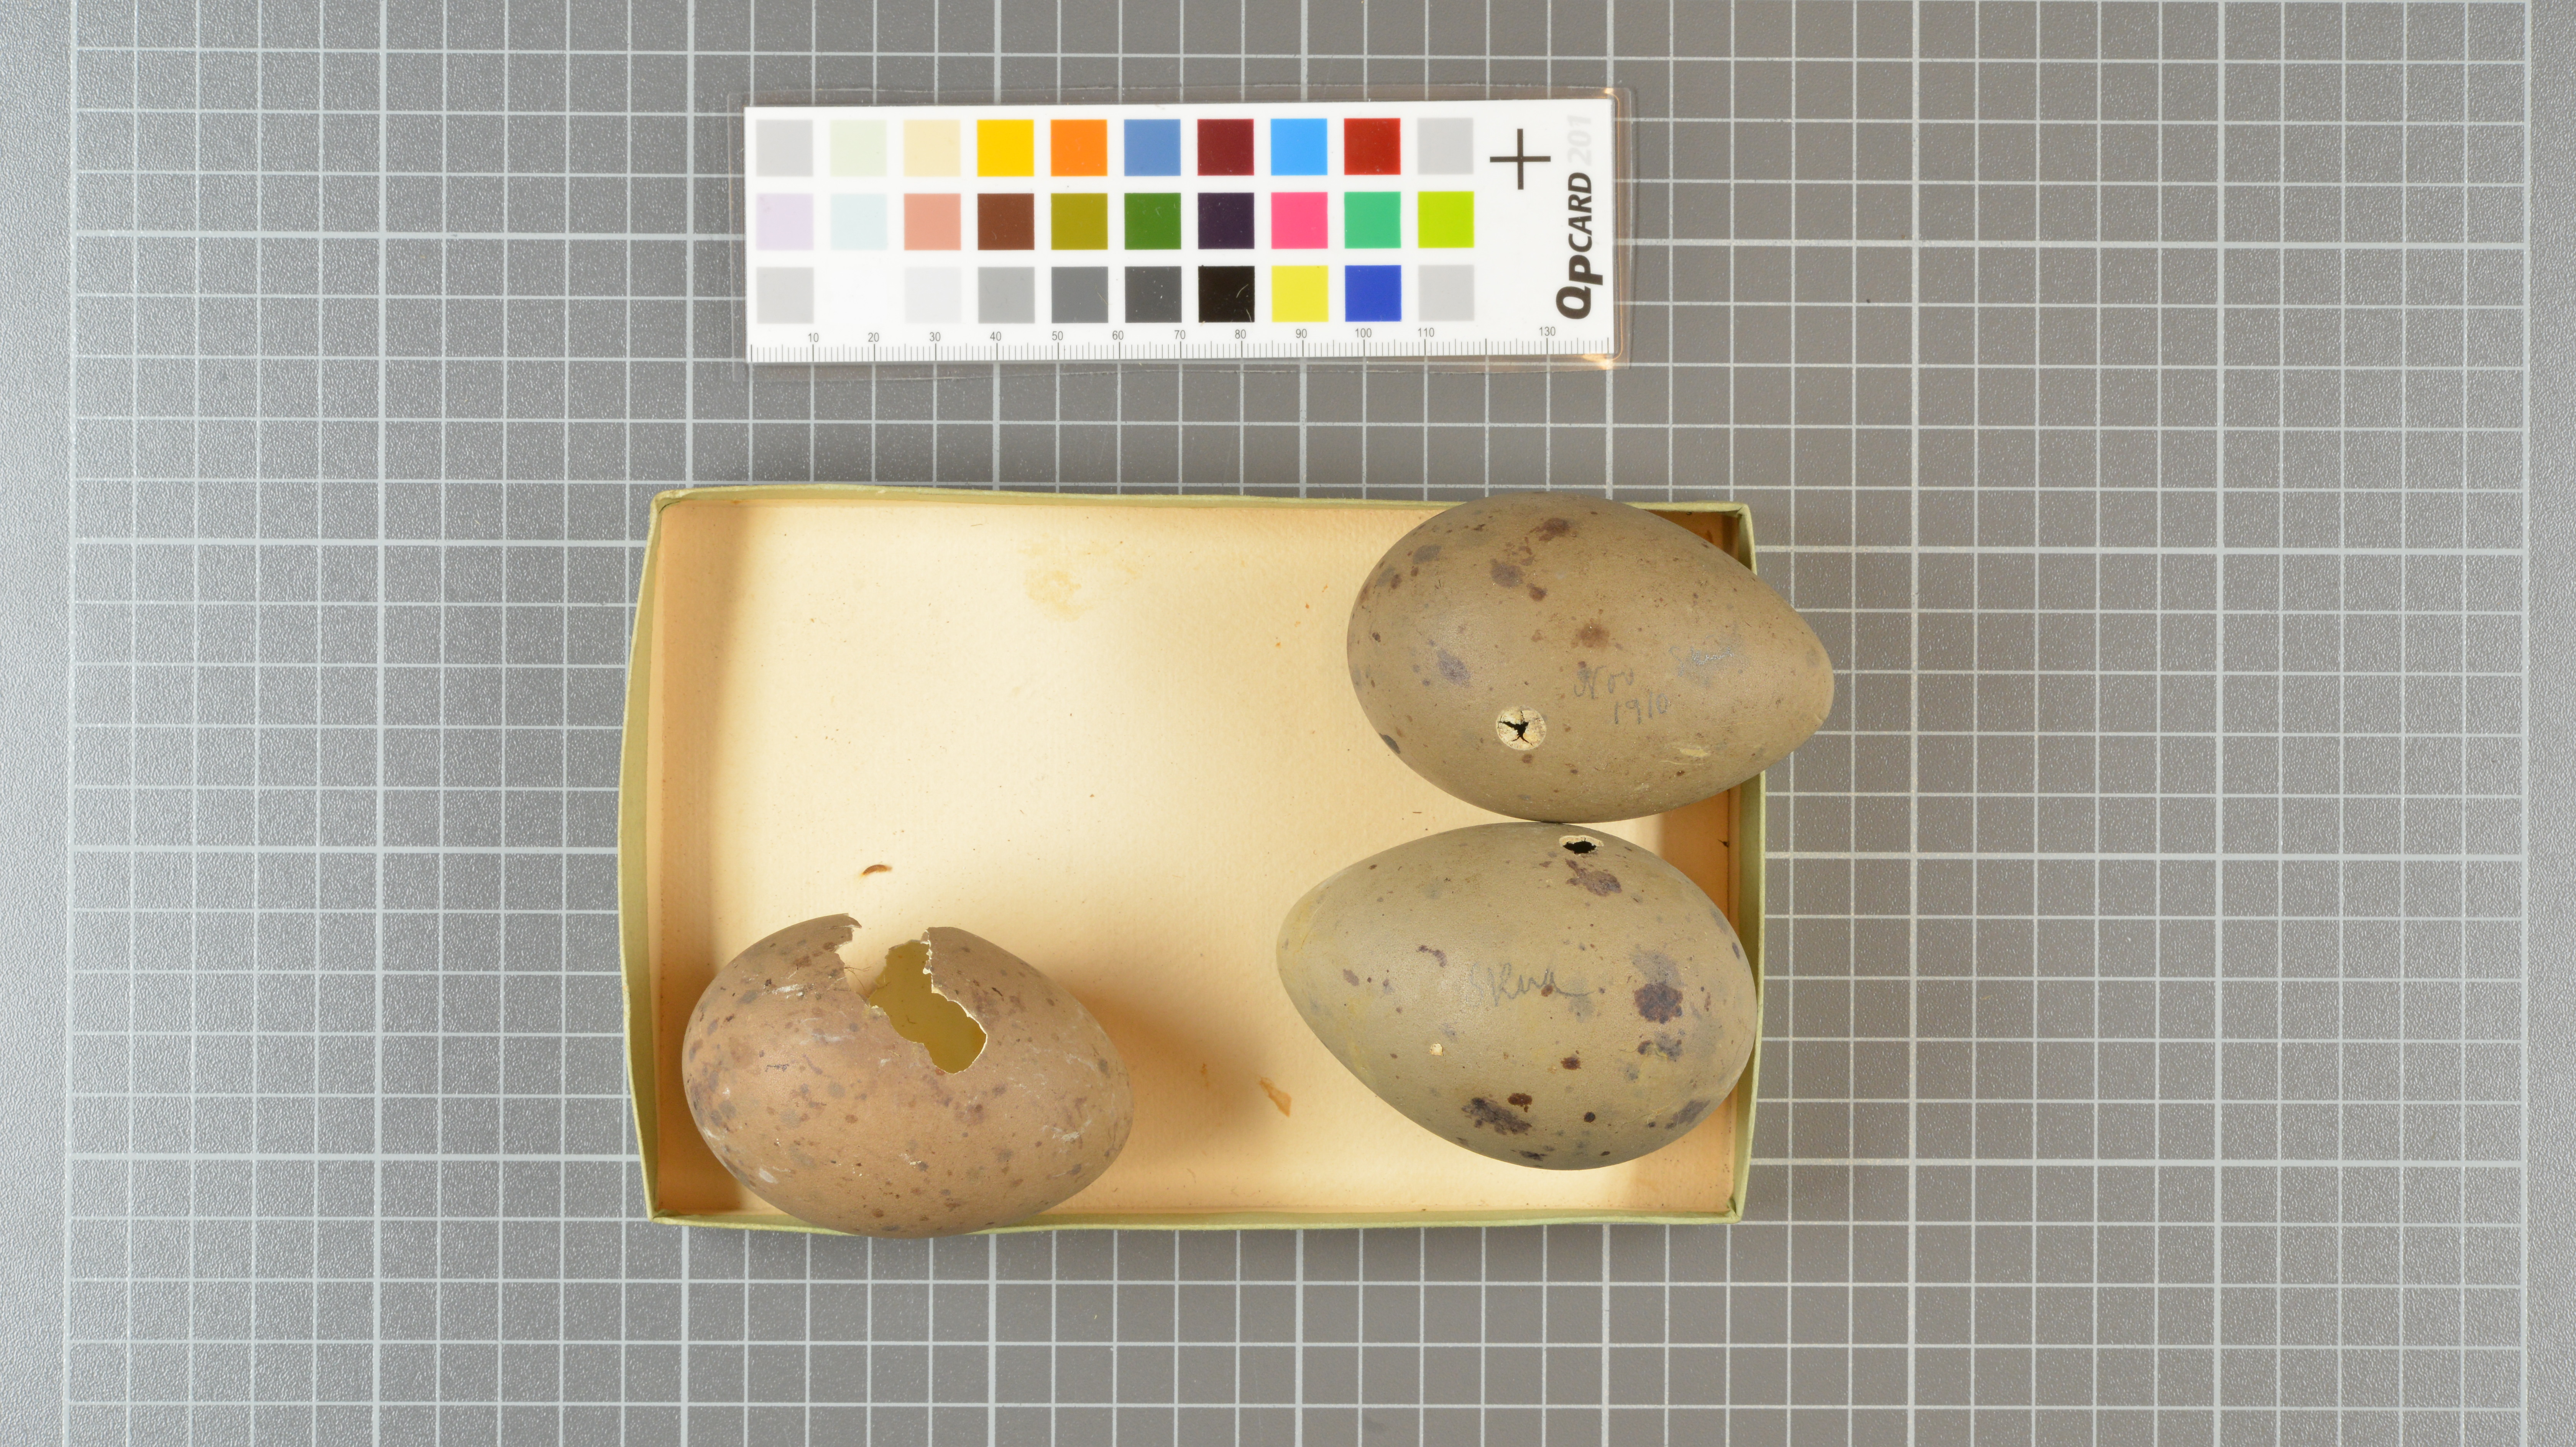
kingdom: Animalia
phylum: Chordata
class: Aves
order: Charadriiformes
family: Stercorariidae
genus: Stercorarius
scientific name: Stercorarius
